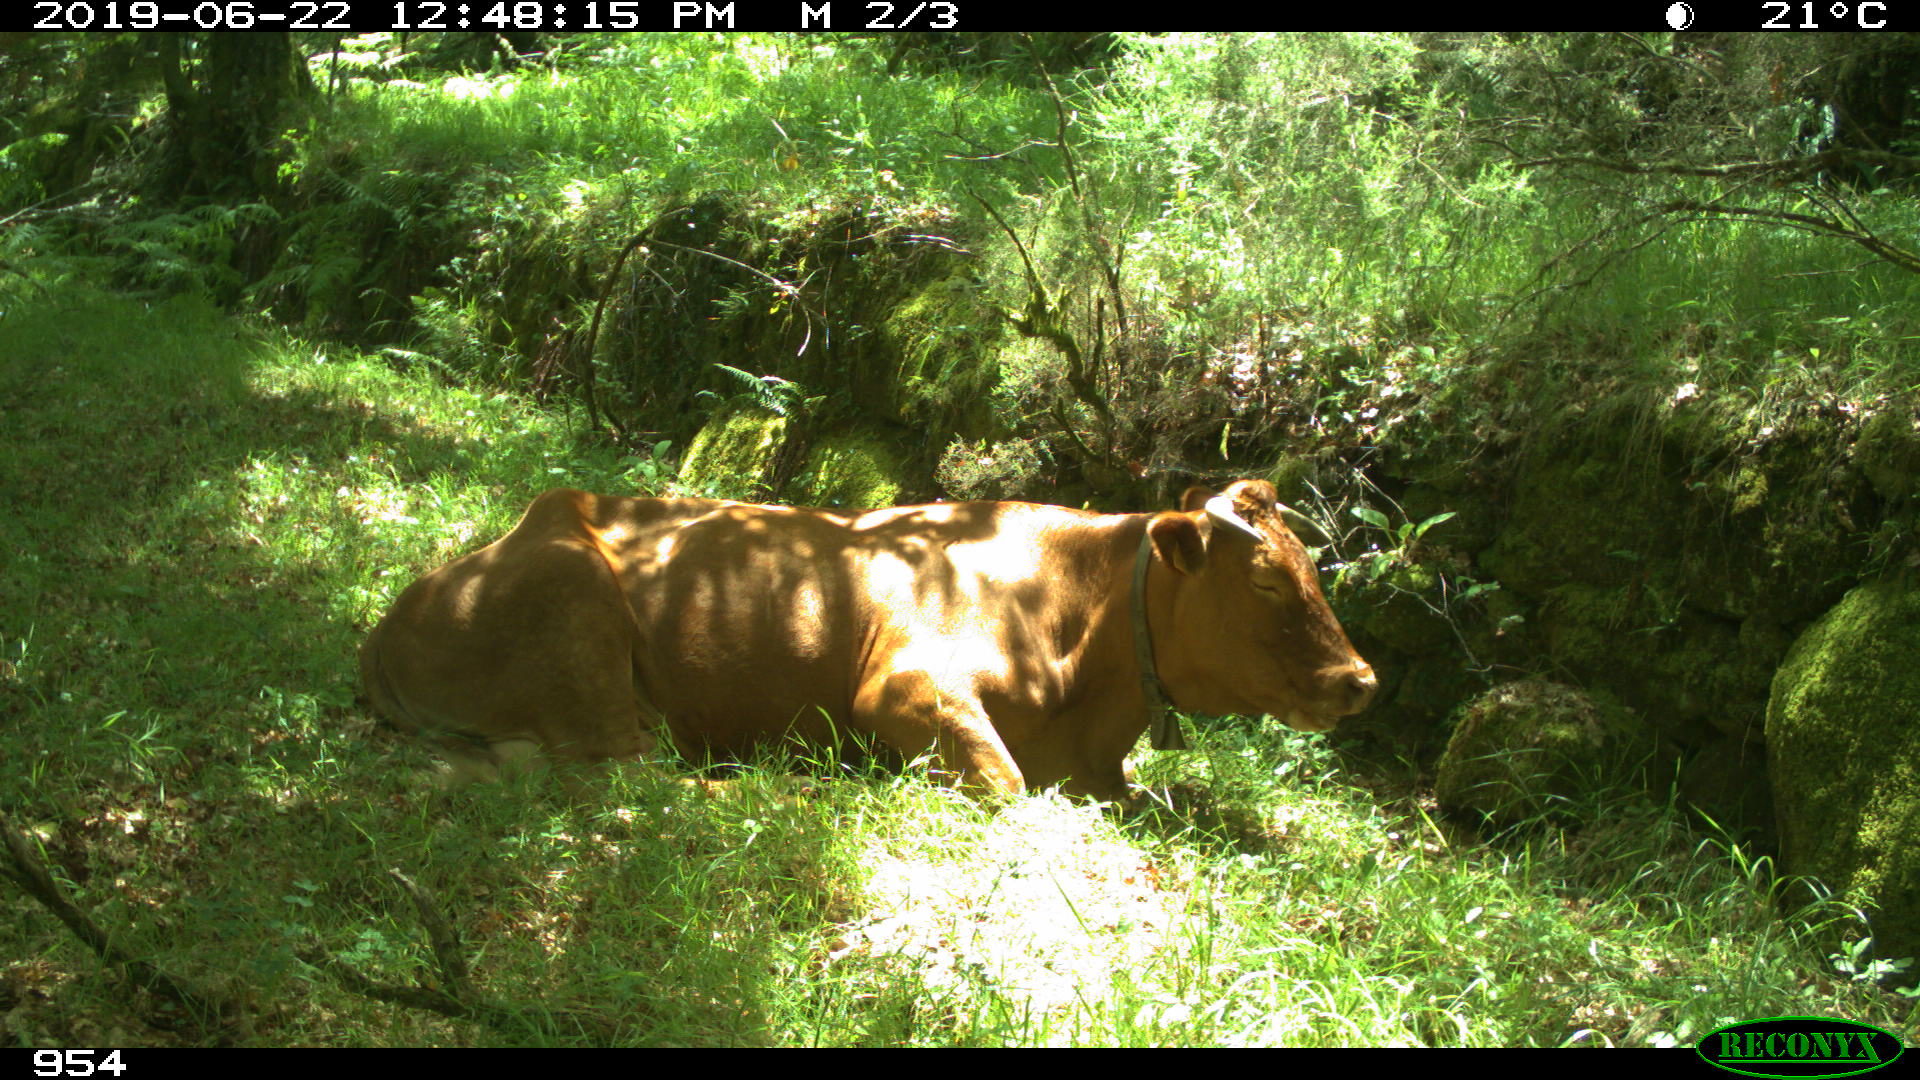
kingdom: Animalia
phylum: Chordata
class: Mammalia
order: Artiodactyla
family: Bovidae
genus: Bos
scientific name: Bos taurus
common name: Domesticated cattle
